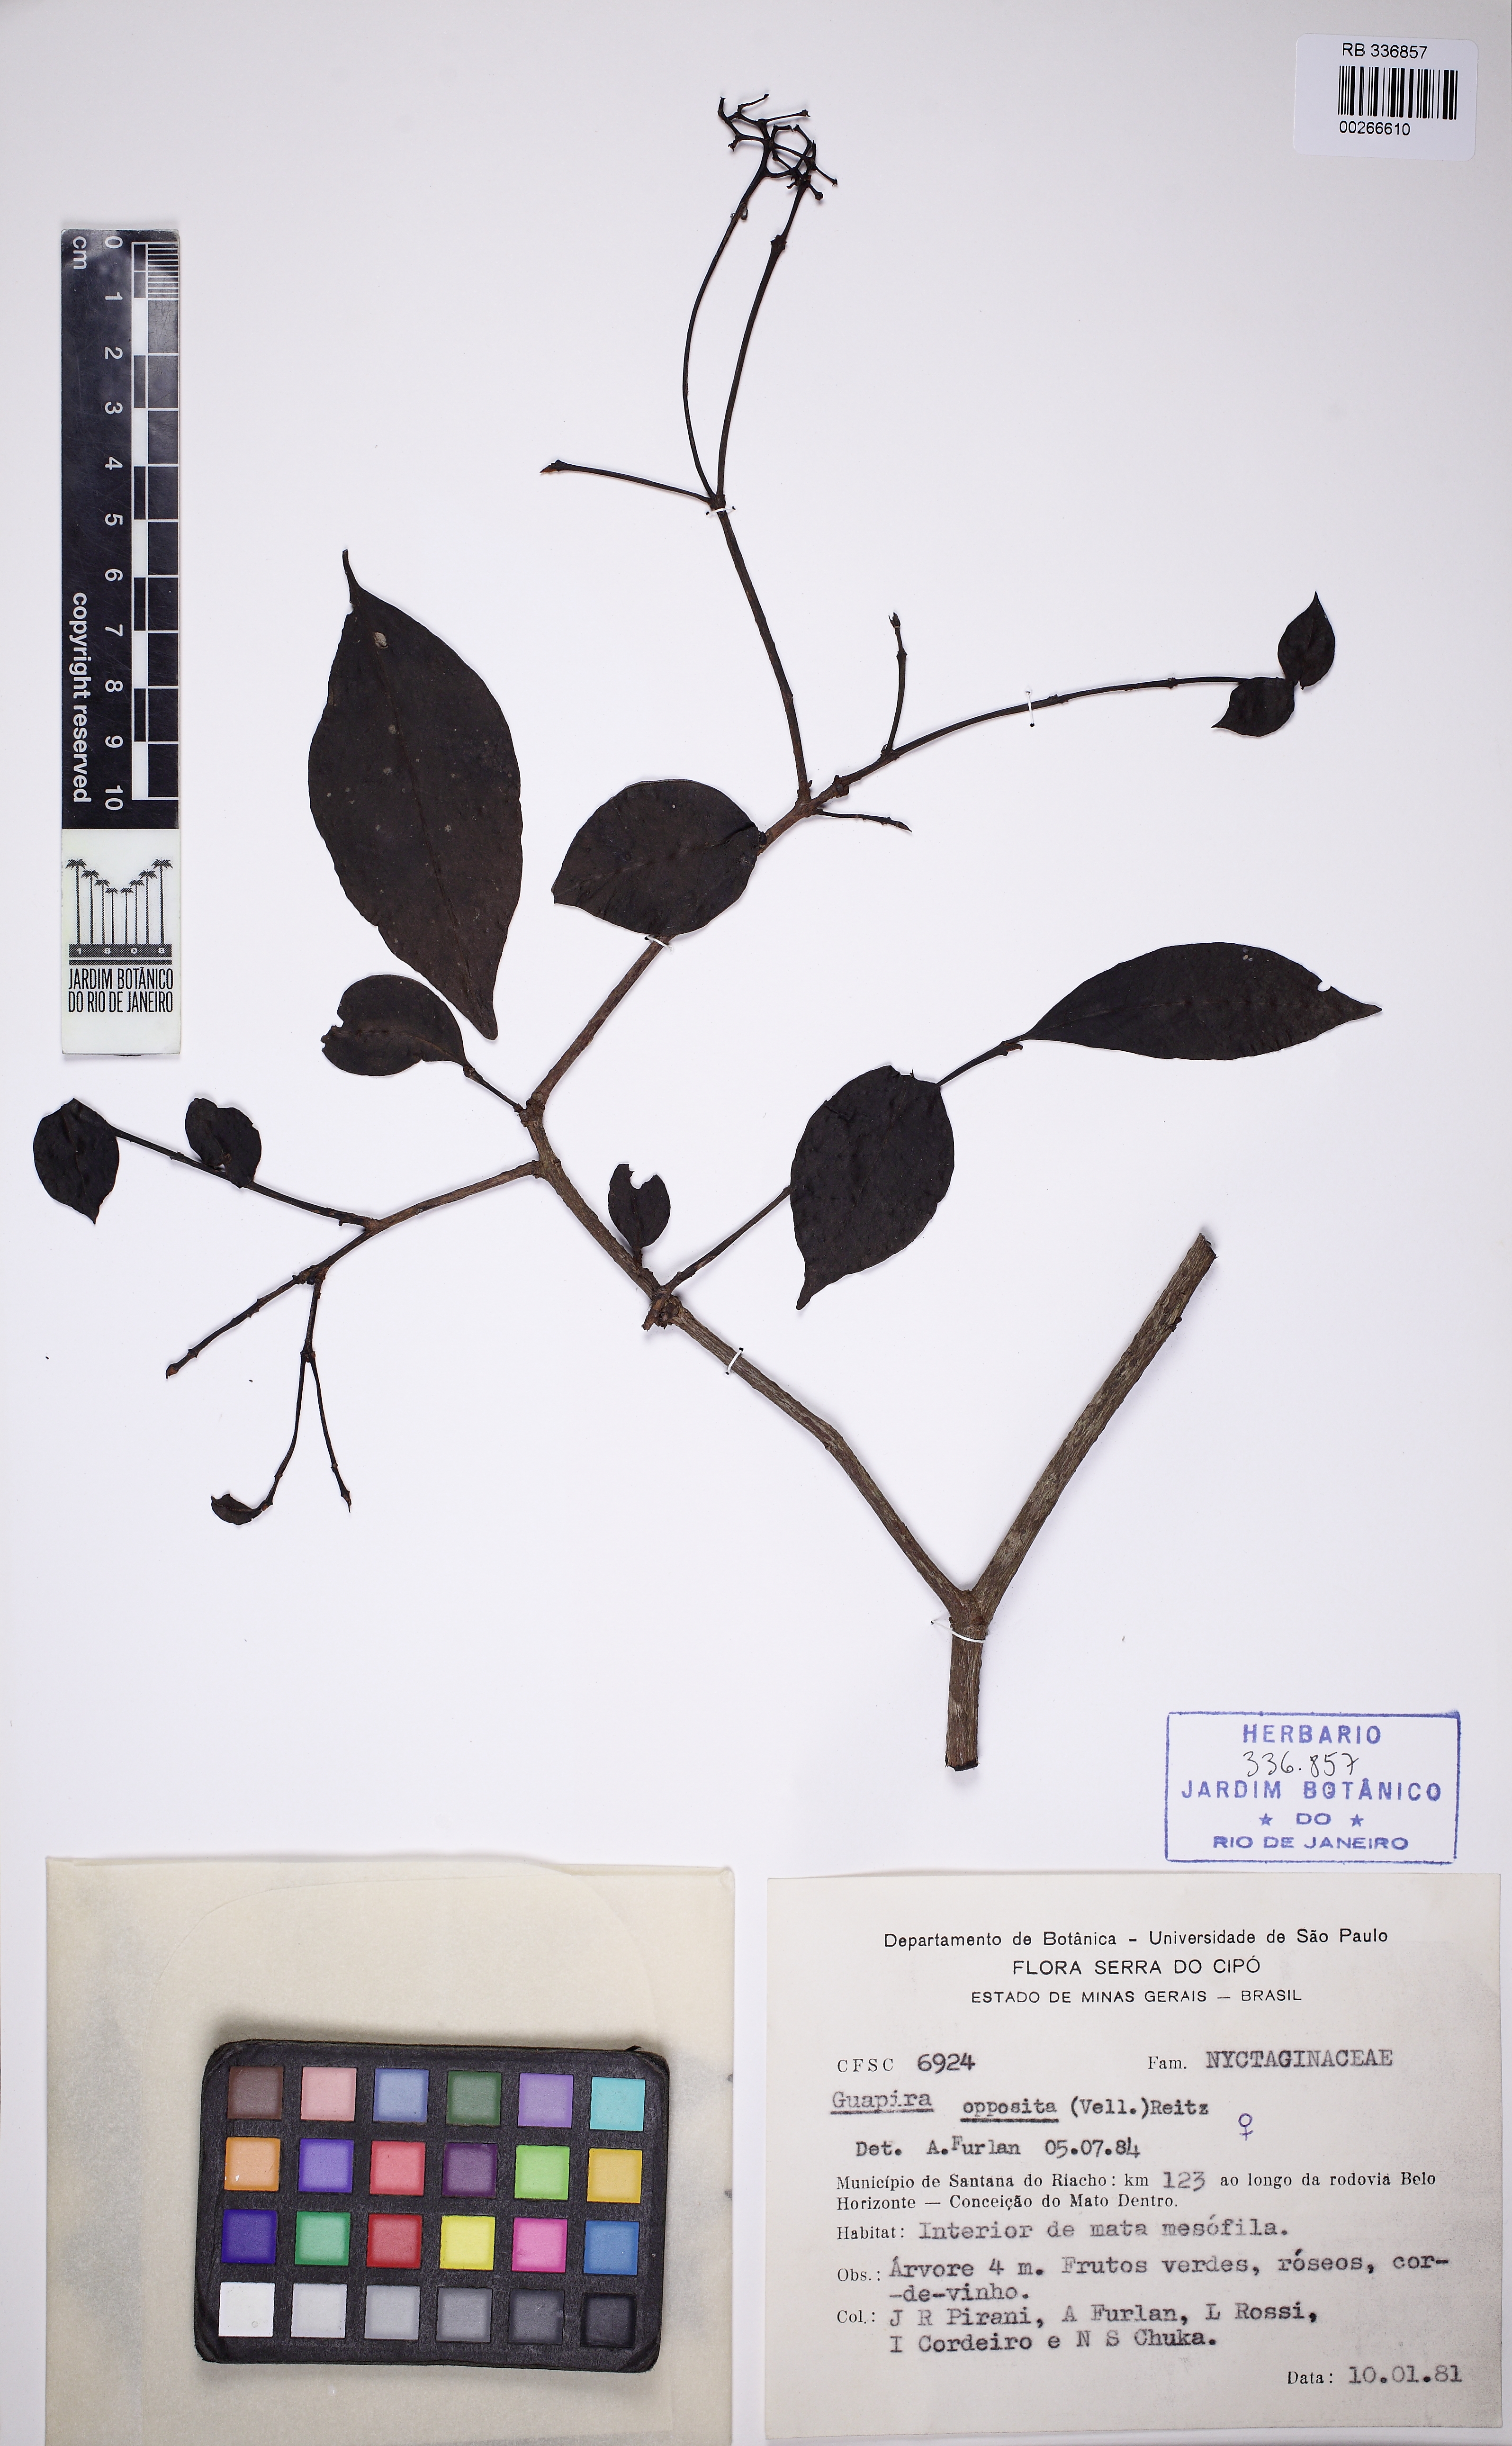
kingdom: Plantae
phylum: Tracheophyta
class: Magnoliopsida
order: Caryophyllales
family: Nyctaginaceae
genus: Guapira
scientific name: Guapira opposita
